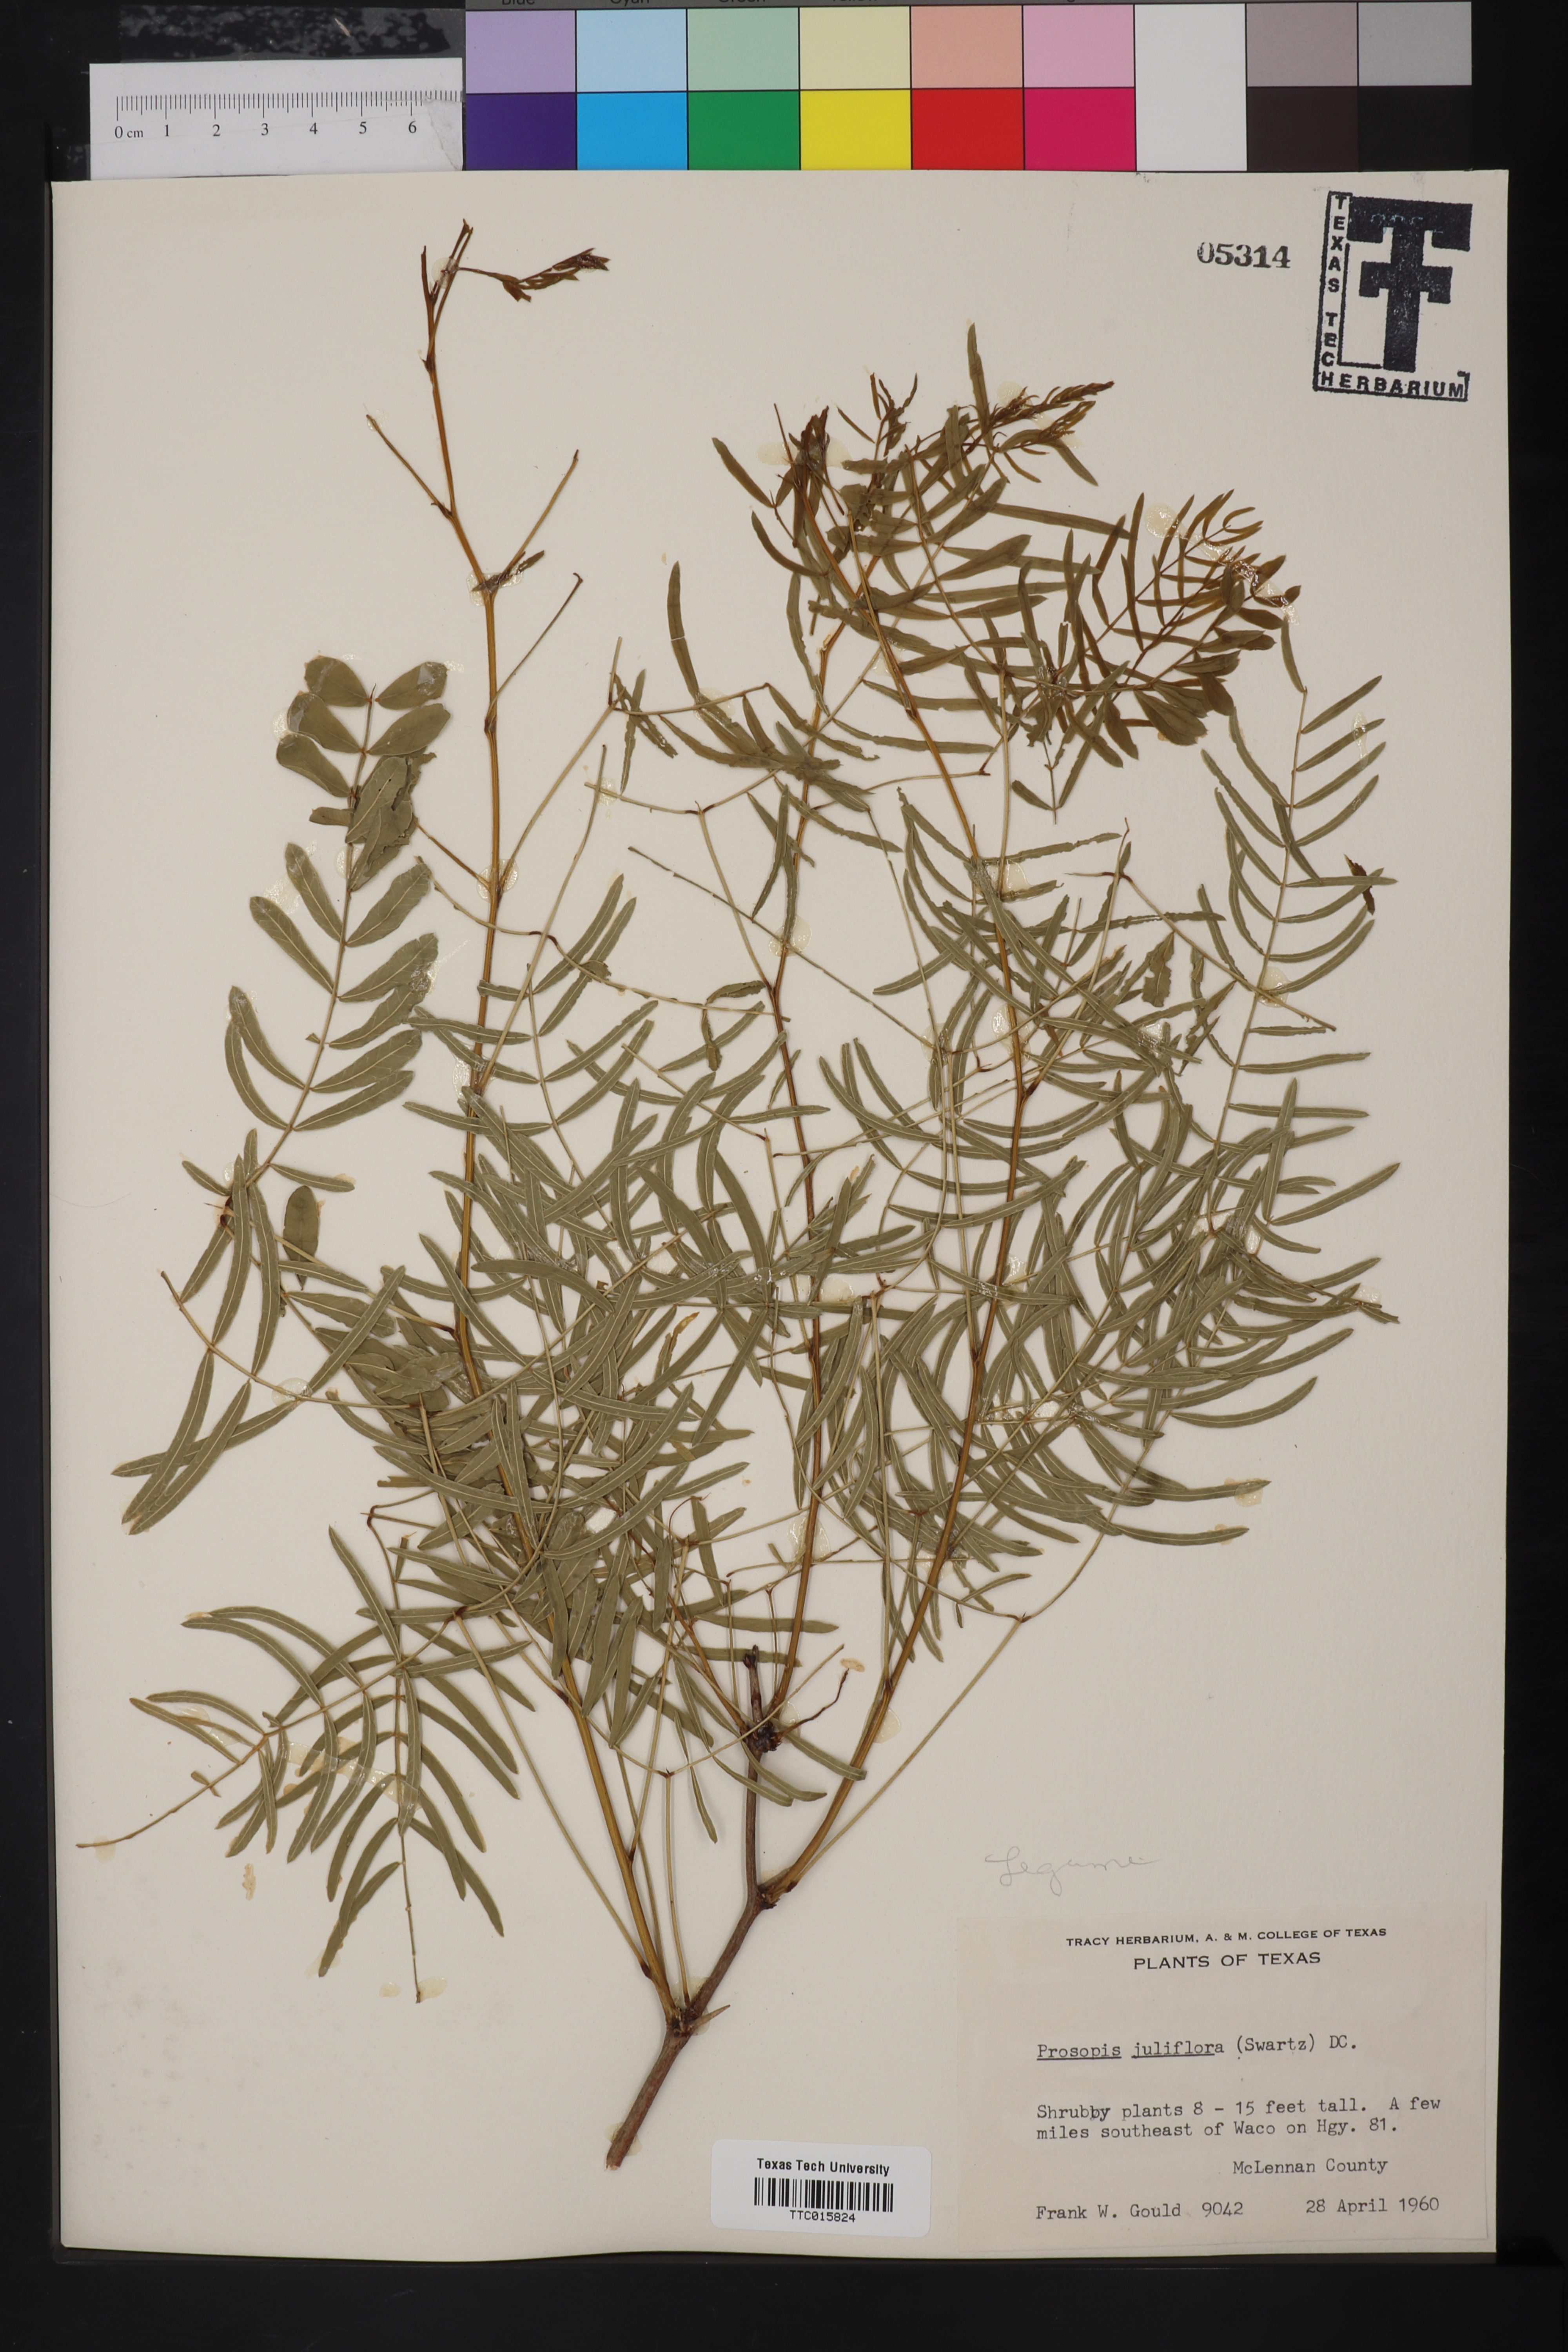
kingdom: Plantae
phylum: Tracheophyta
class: Magnoliopsida
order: Fabales
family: Fabaceae
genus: Prosopis
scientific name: Prosopis juliflora
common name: Mesquite
